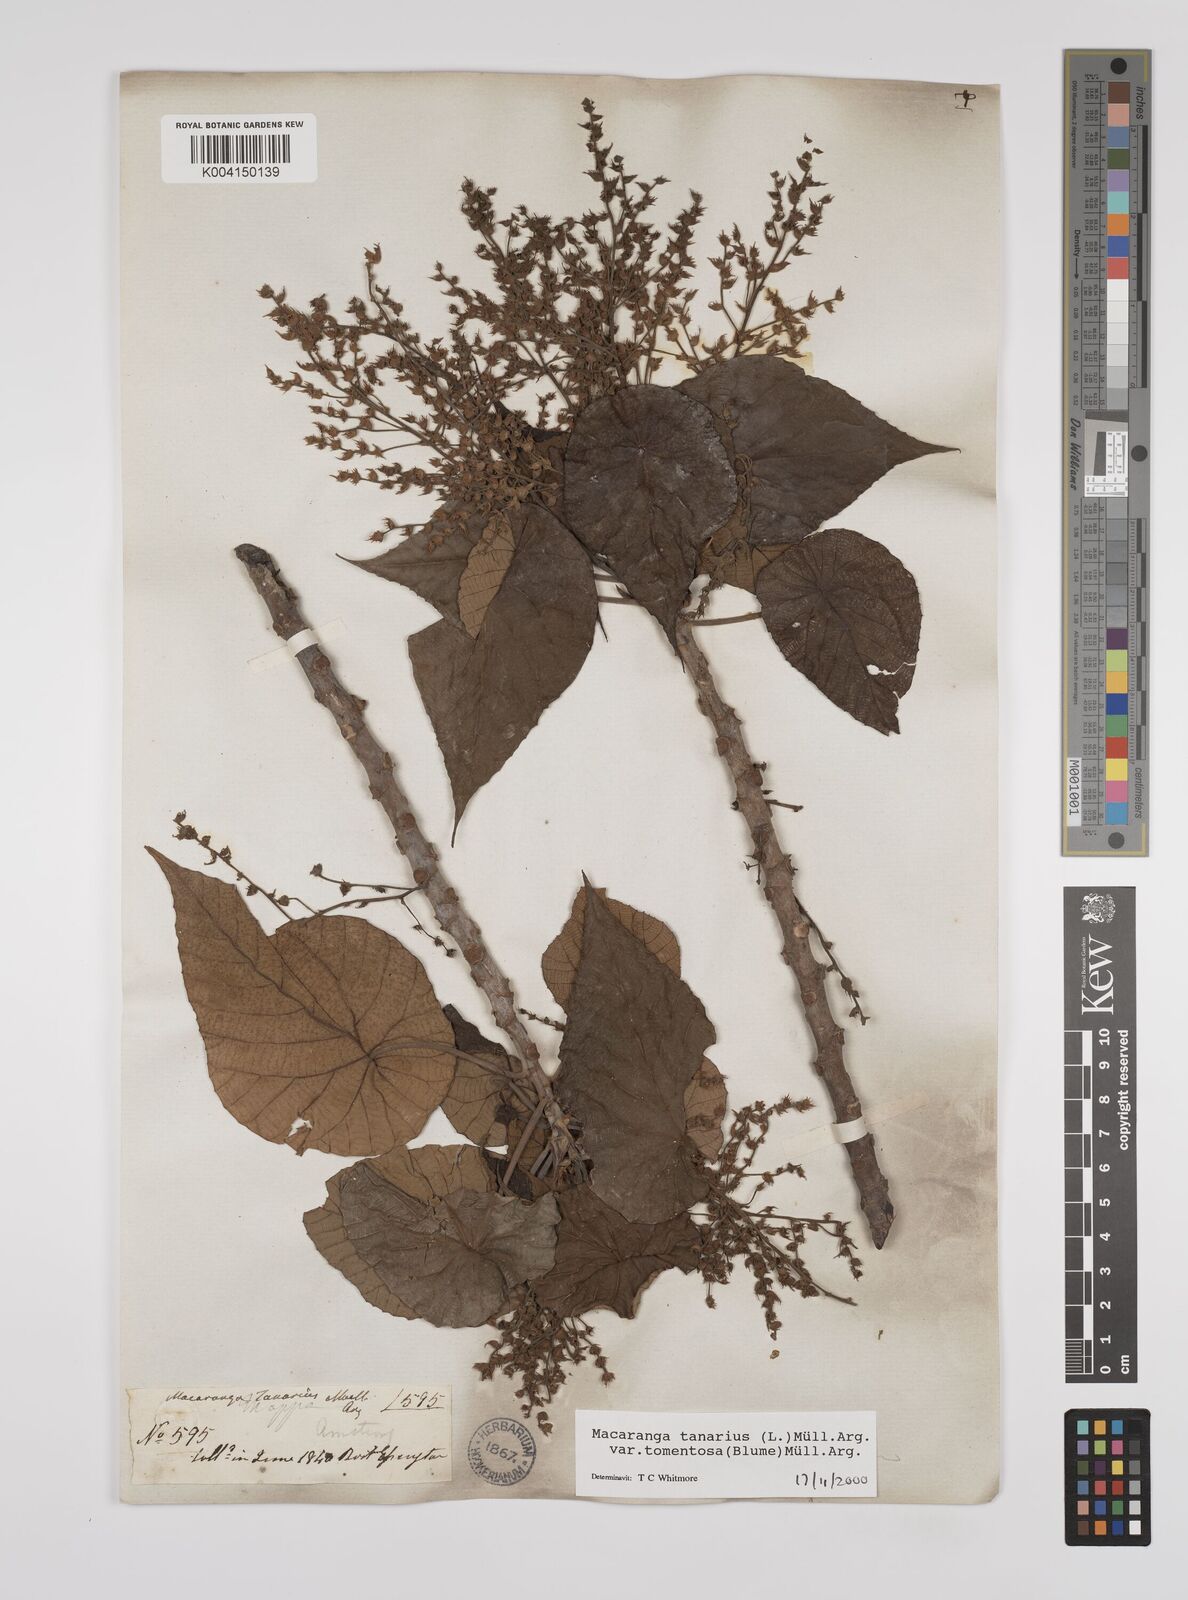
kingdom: Plantae
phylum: Tracheophyta
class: Magnoliopsida
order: Malpighiales
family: Euphorbiaceae
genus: Macaranga
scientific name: Macaranga tanarius
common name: Parasol leaf tree
